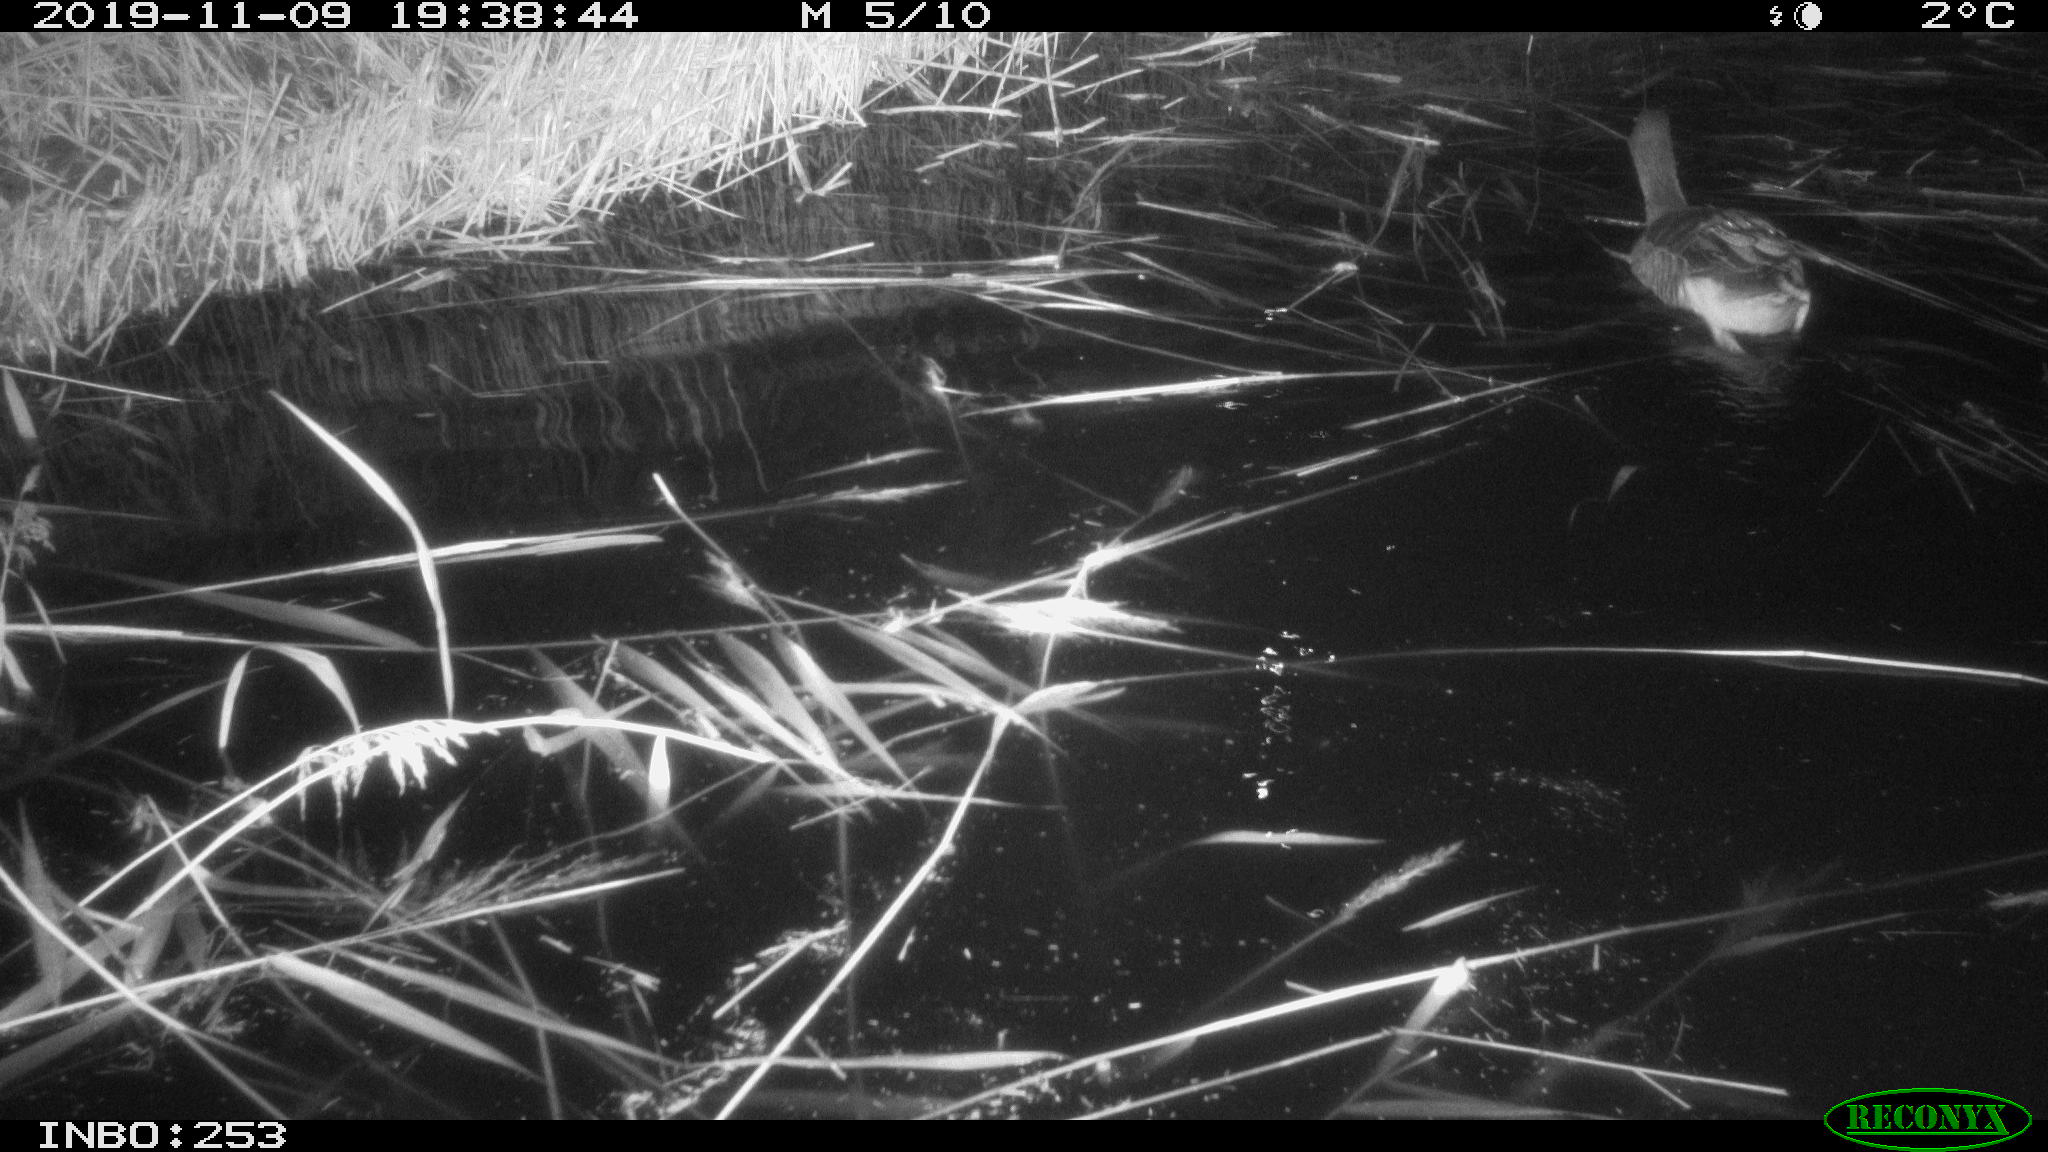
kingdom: Animalia
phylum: Chordata
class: Aves
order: Anseriformes
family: Anatidae
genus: Anser
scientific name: Anser anser
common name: Greylag goose
